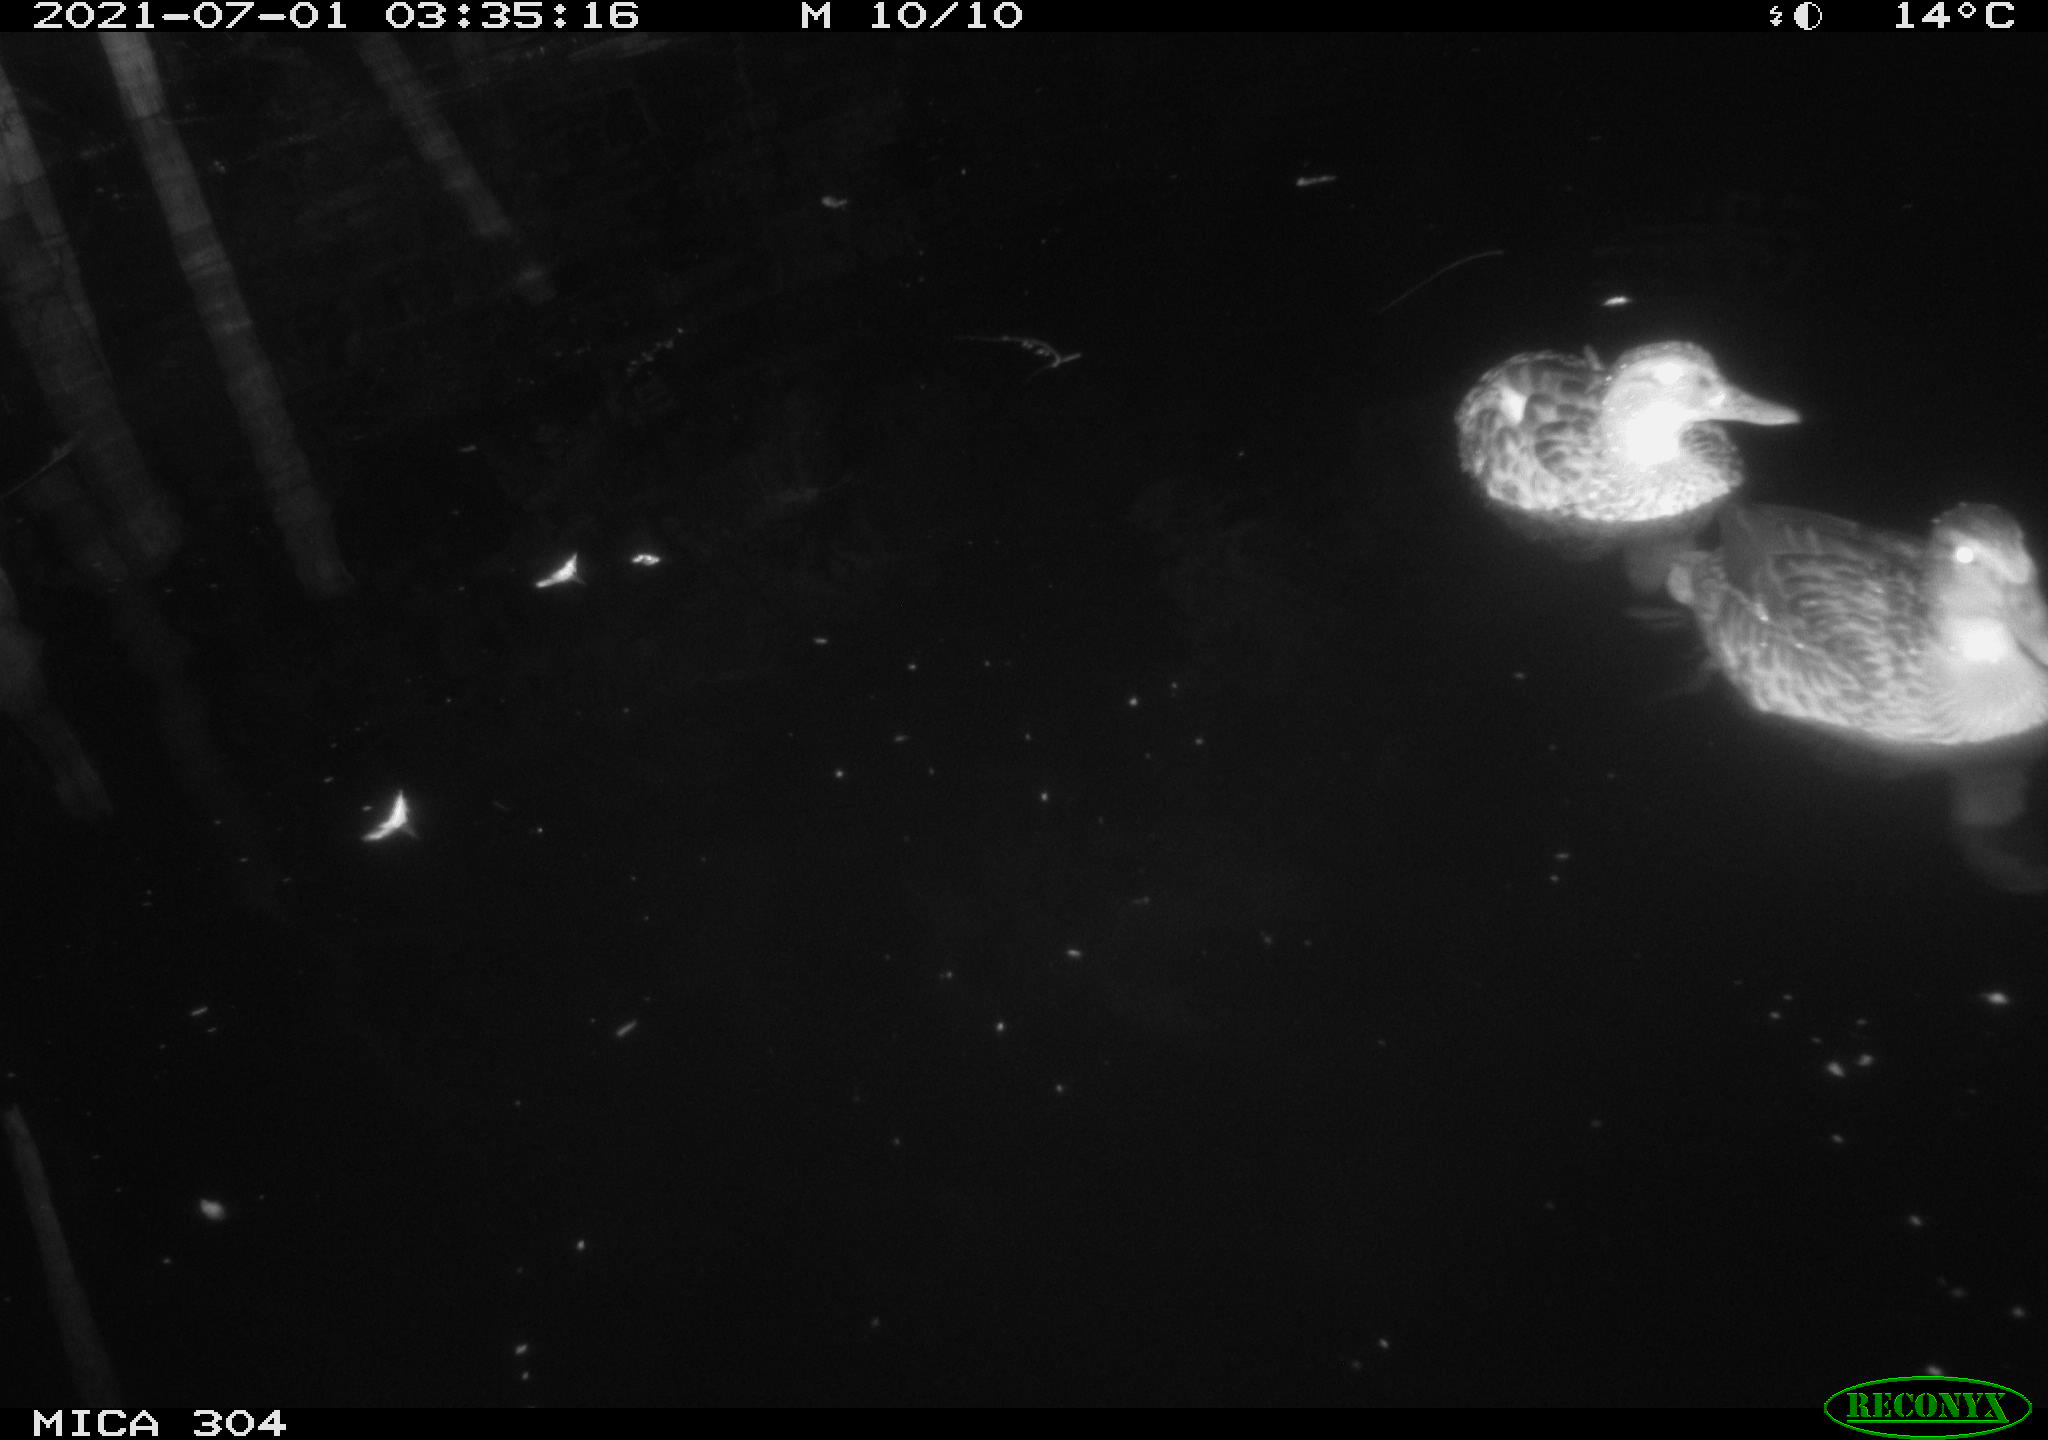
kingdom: Animalia
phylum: Chordata
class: Aves
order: Anseriformes
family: Anatidae
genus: Anas
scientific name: Anas platyrhynchos
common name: Mallard
